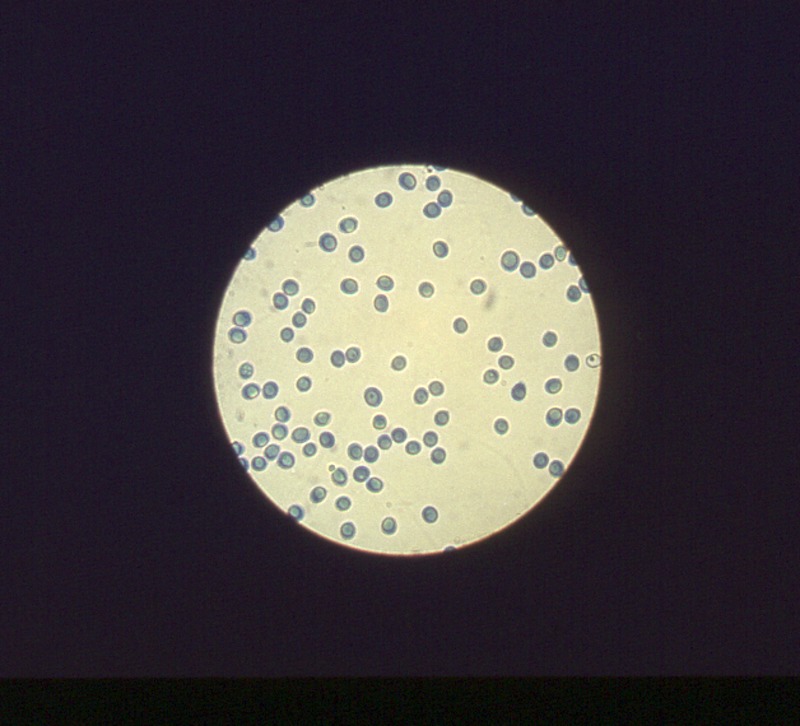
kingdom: Fungi
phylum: Basidiomycota
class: Agaricomycetes
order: Agaricales
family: Lyophyllaceae
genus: Hypsizygus
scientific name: Hypsizygus tessulatus
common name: Beech mushroom
